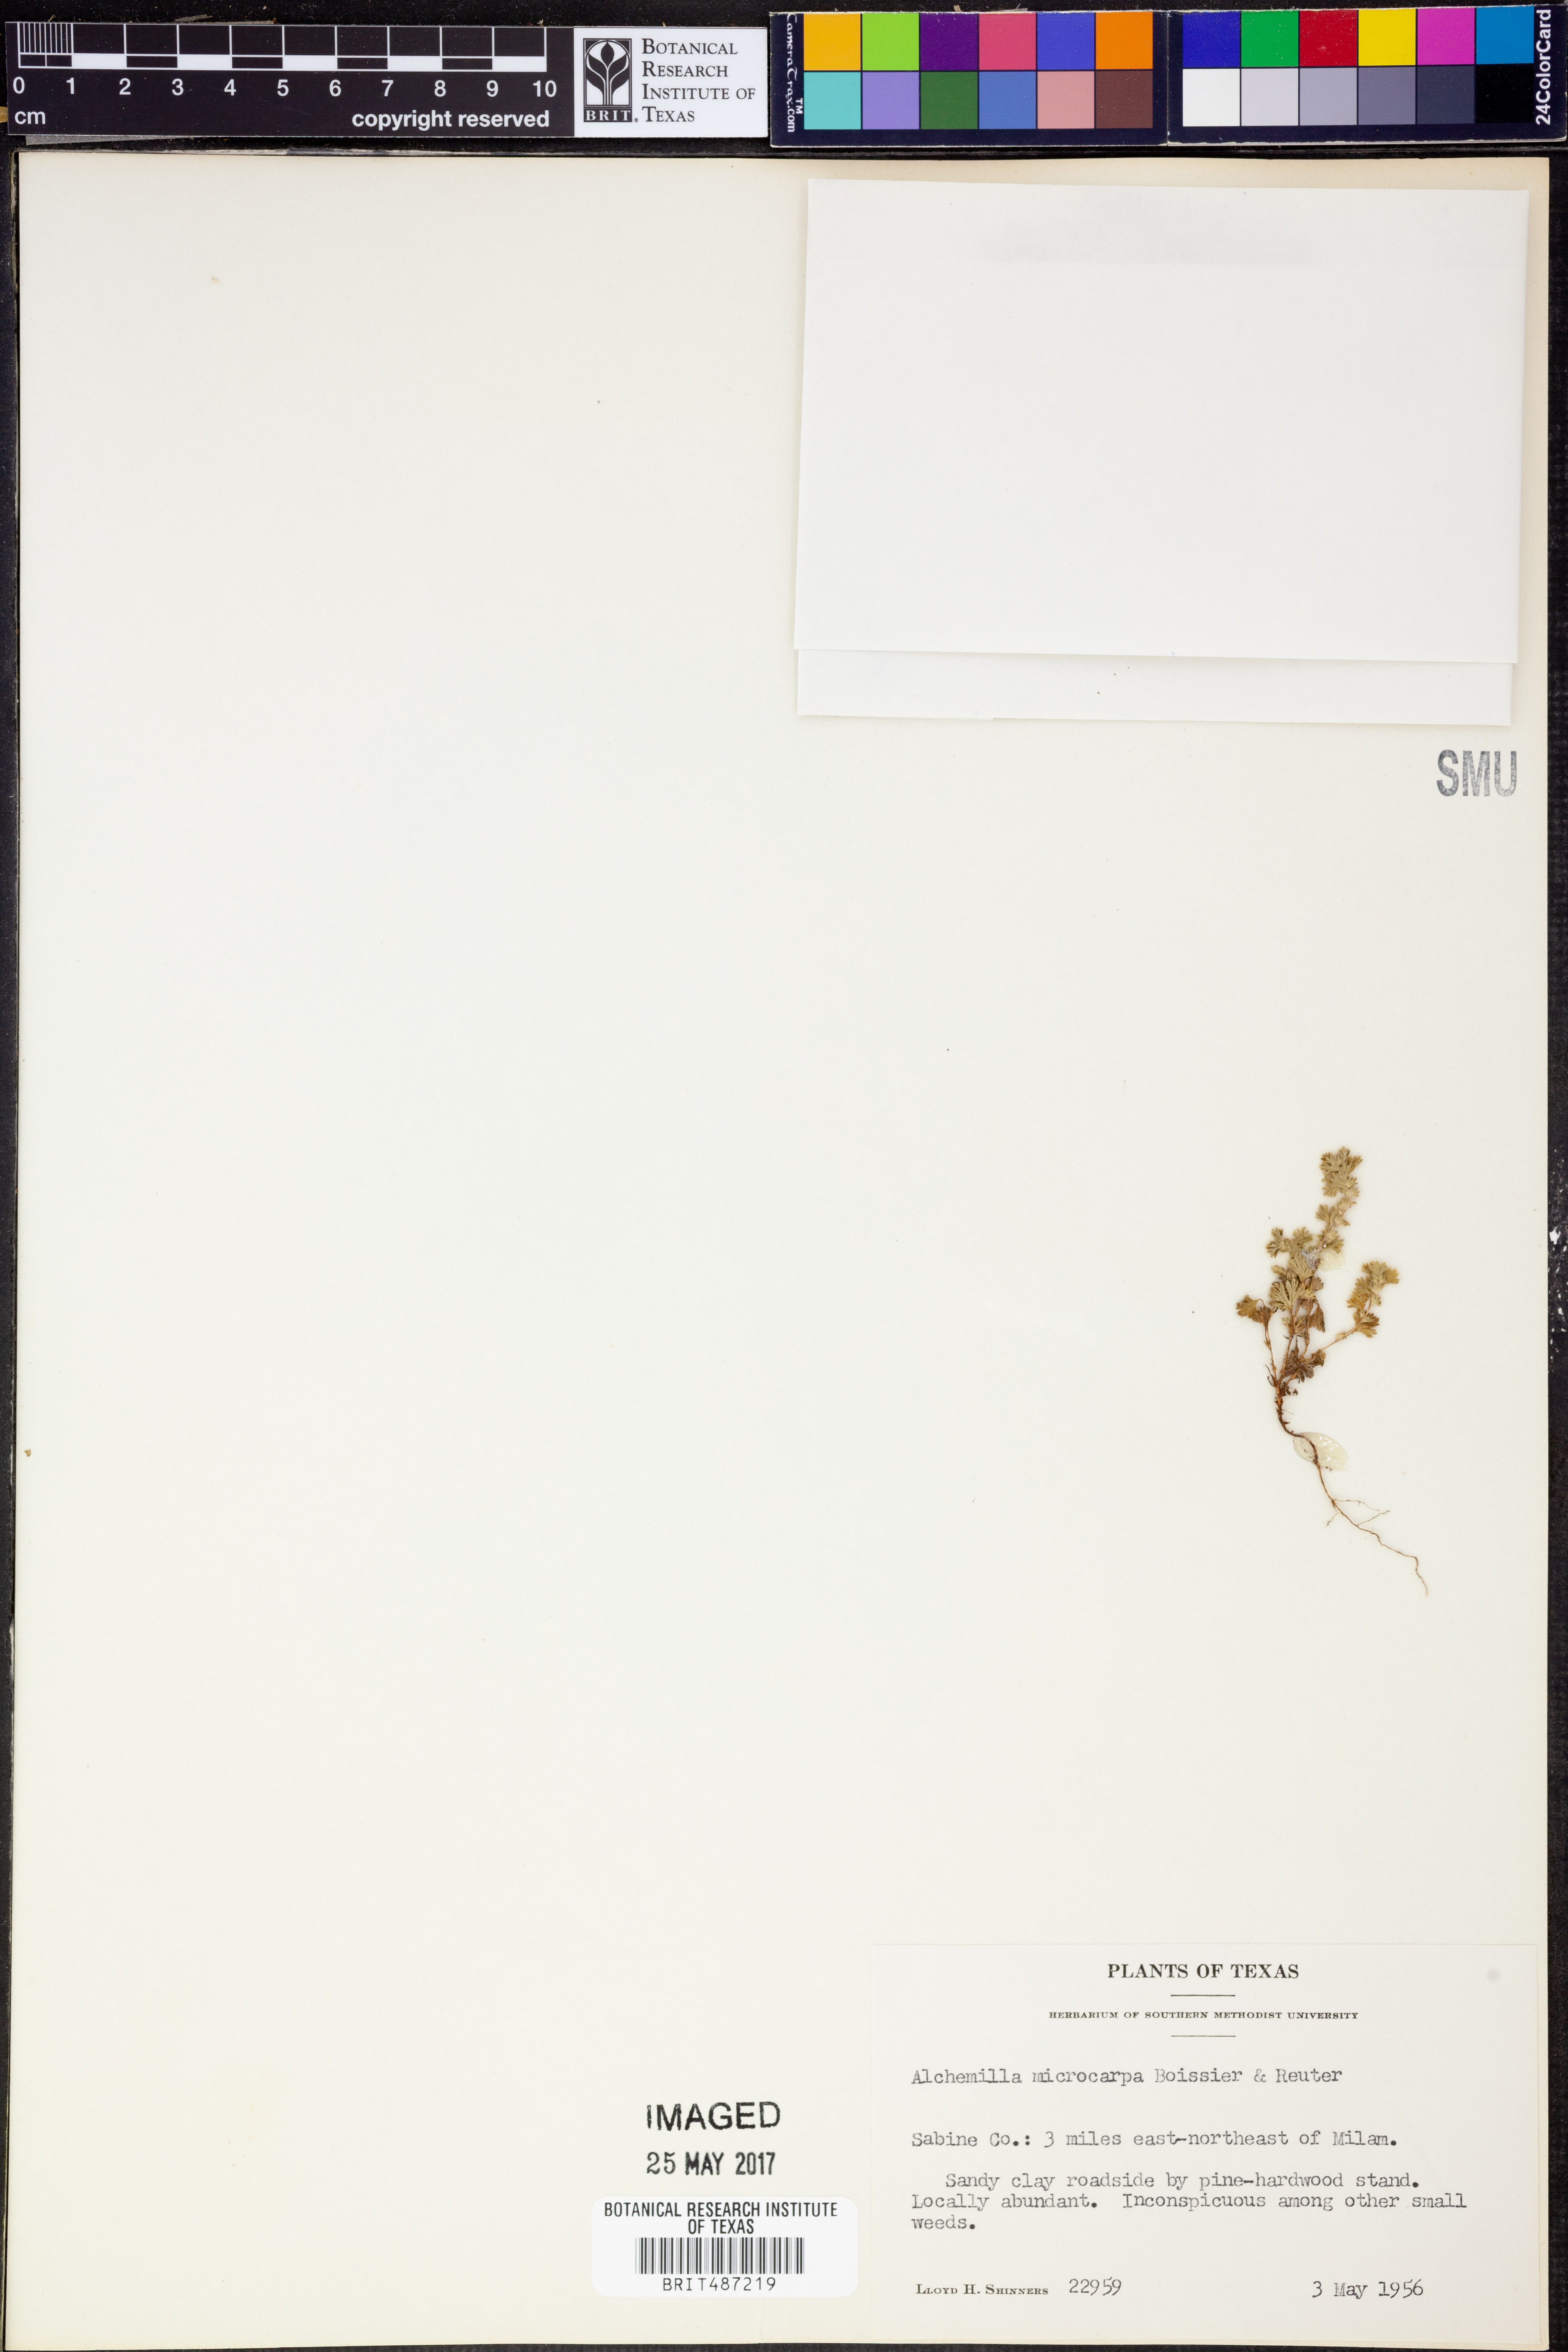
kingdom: Plantae
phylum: Tracheophyta
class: Magnoliopsida
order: Rosales
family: Rosaceae
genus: Aphanes
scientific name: Aphanes microcarpa
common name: Slender parsley piert
